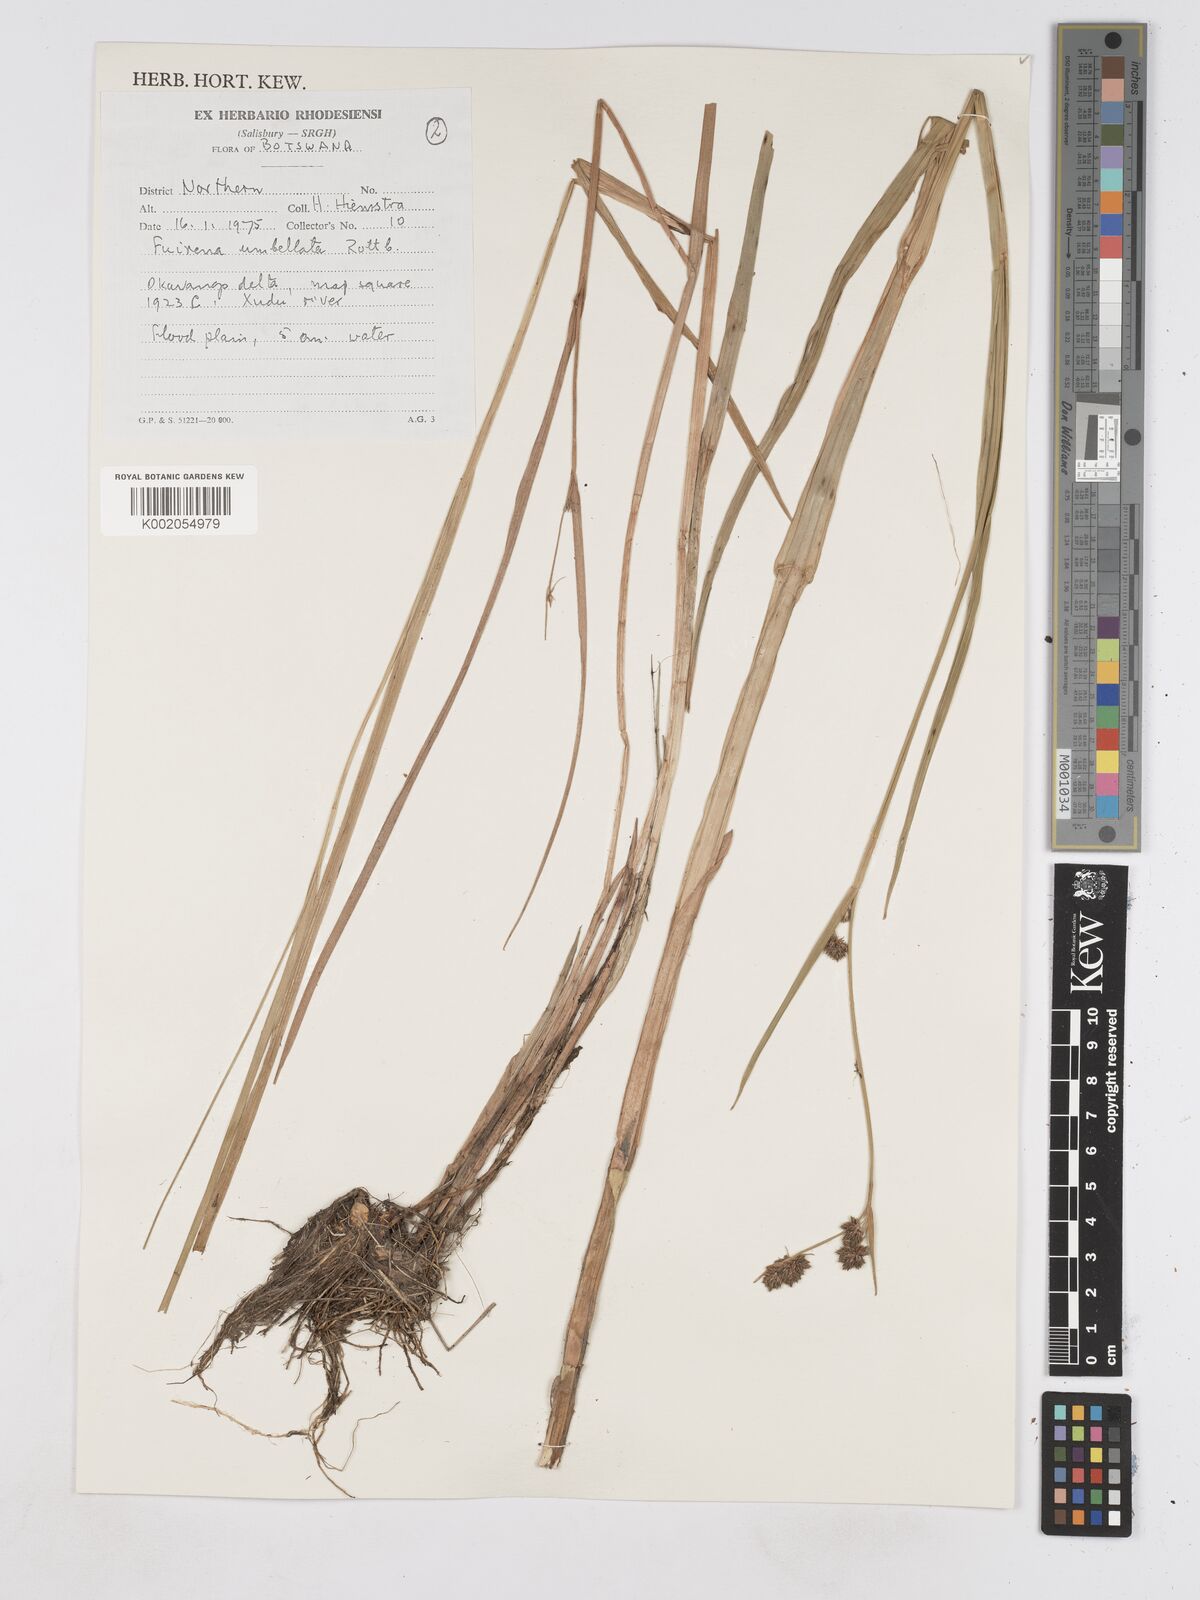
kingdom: Plantae
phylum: Tracheophyta
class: Liliopsida
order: Poales
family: Cyperaceae
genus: Fuirena
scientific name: Fuirena umbellata
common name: Yefen
